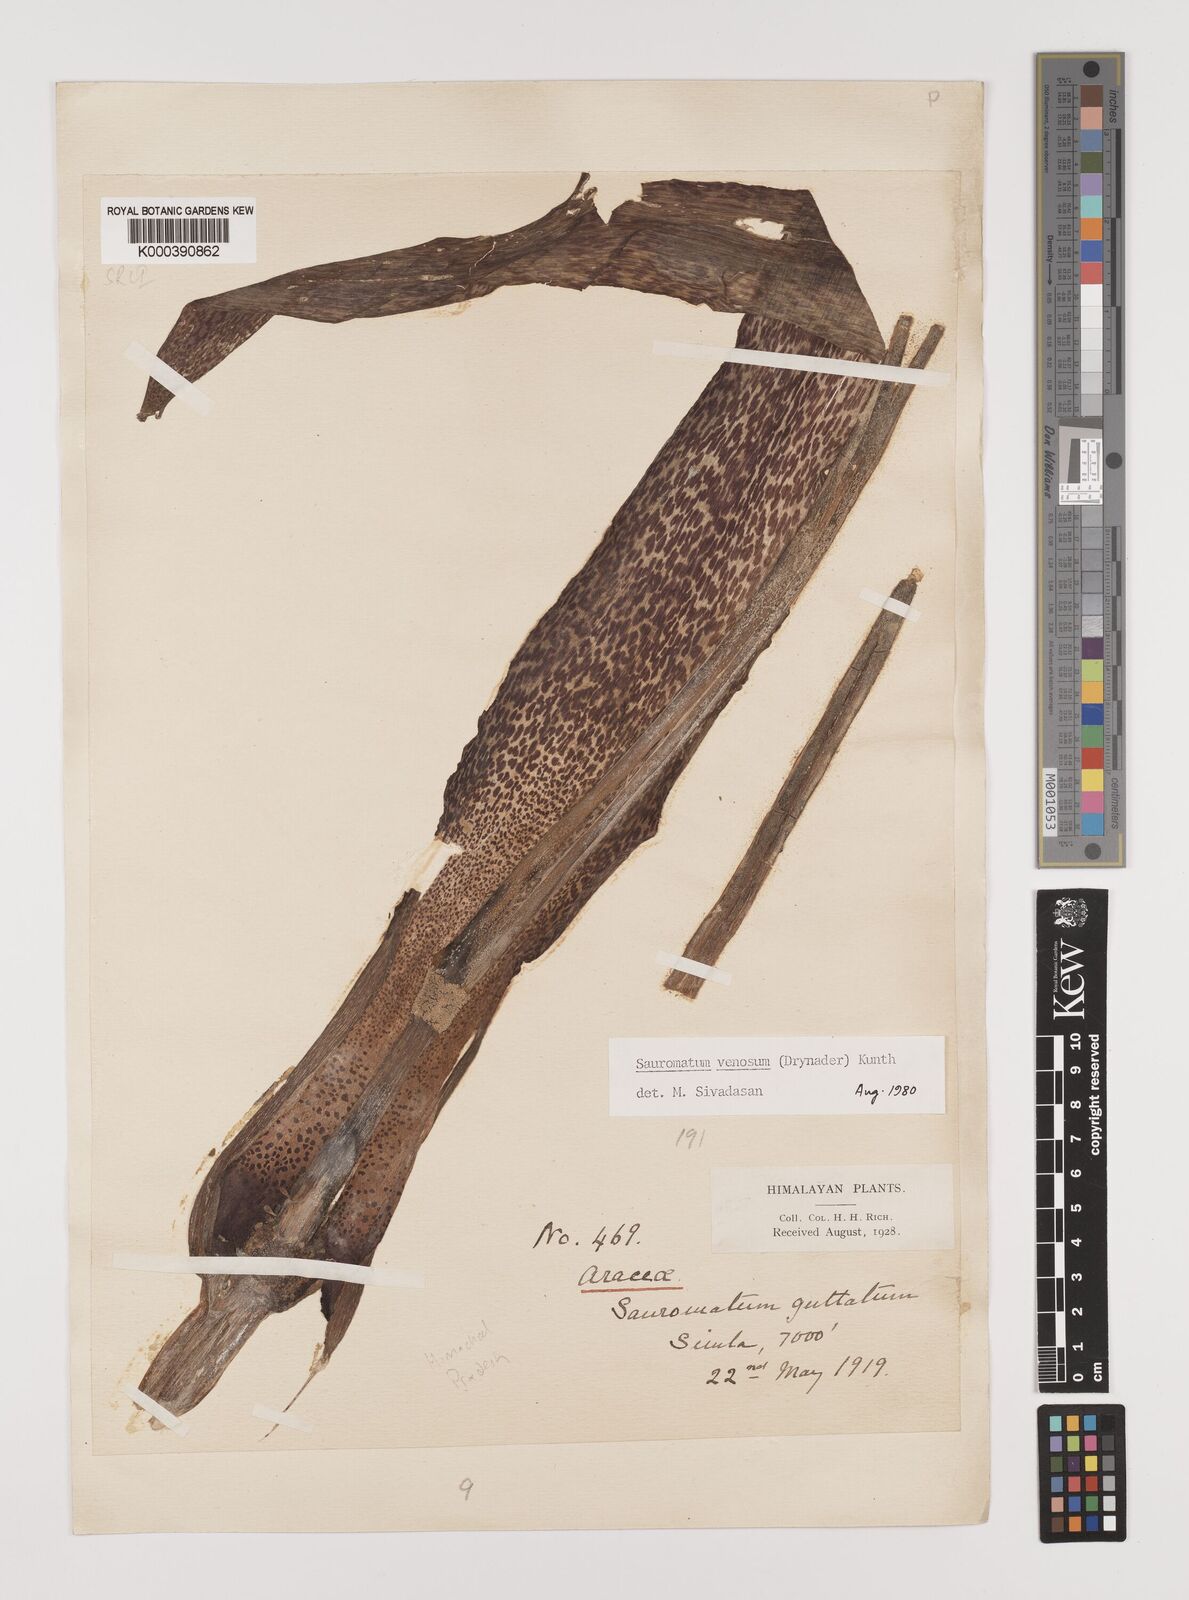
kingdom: Plantae
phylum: Tracheophyta
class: Liliopsida
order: Alismatales
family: Araceae
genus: Sauromatum
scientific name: Sauromatum venosum
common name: Voodoo lily
